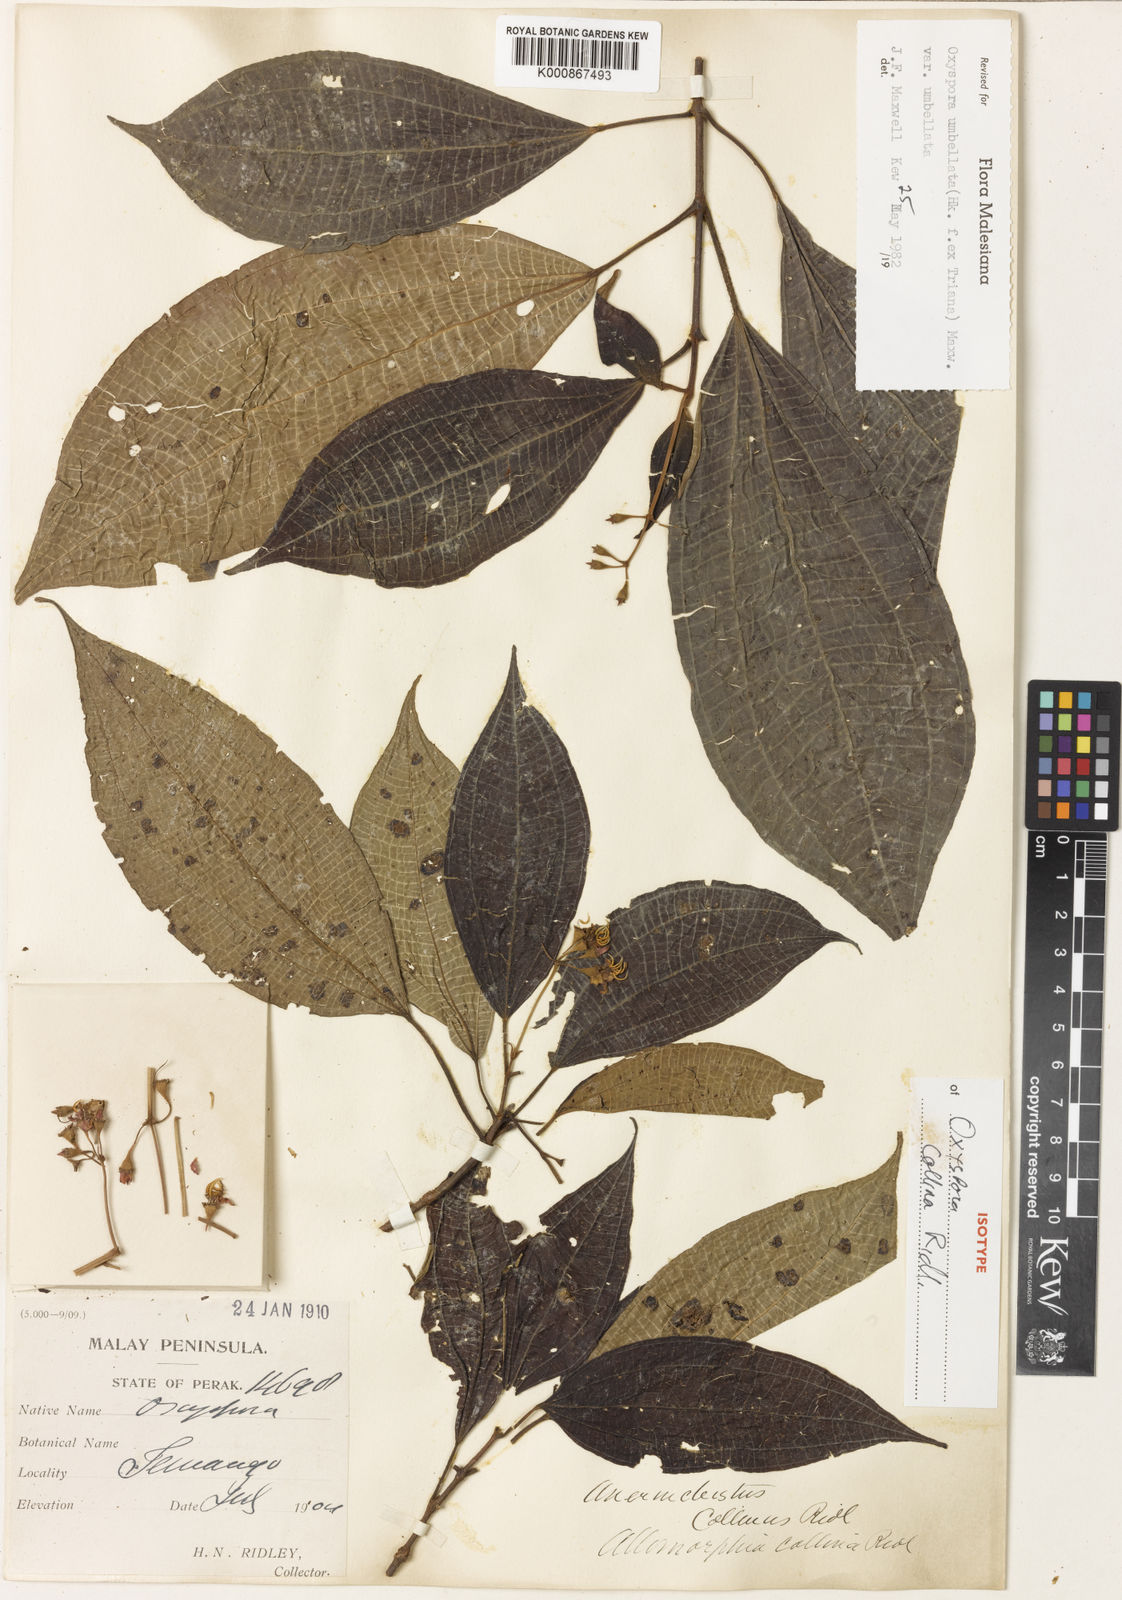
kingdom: Plantae
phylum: Tracheophyta
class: Magnoliopsida
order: Myrtales
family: Melastomataceae
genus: Allomorphia
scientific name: Allomorphia umbellulata
